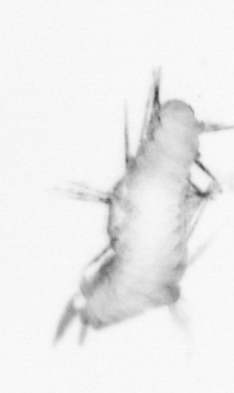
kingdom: Animalia
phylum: Annelida
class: Polychaeta
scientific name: Polychaeta
